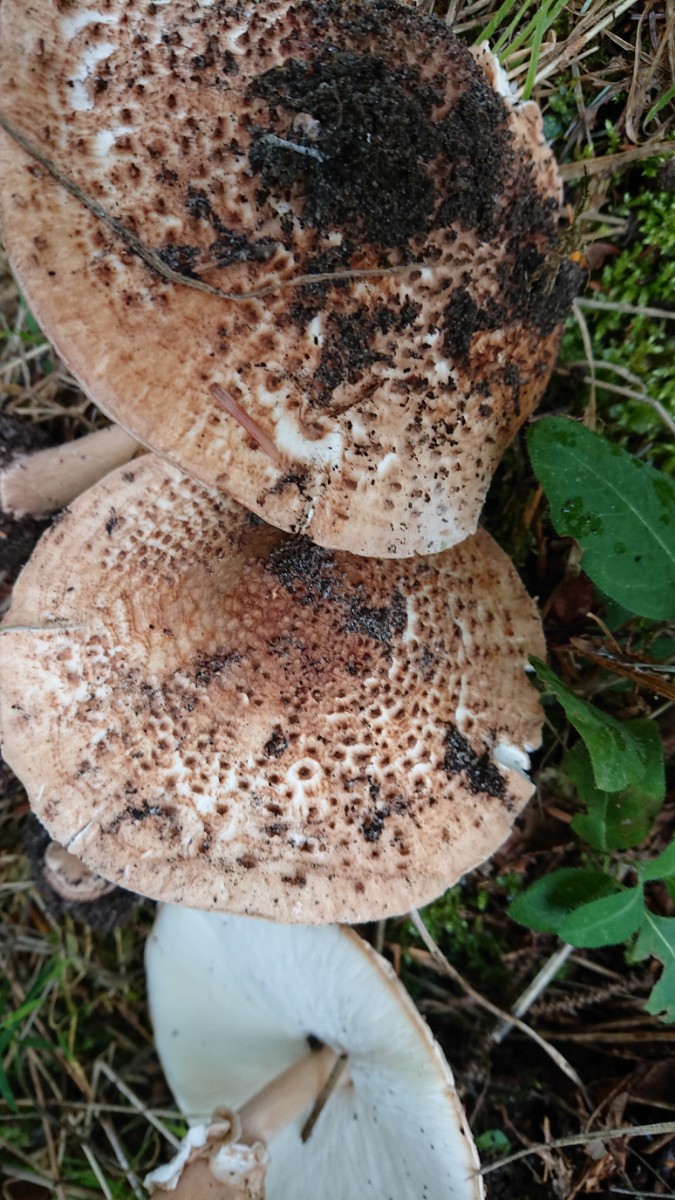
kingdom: Fungi
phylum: Basidiomycota
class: Agaricomycetes
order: Agaricales
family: Agaricaceae
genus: Echinoderma
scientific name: Echinoderma asperum
